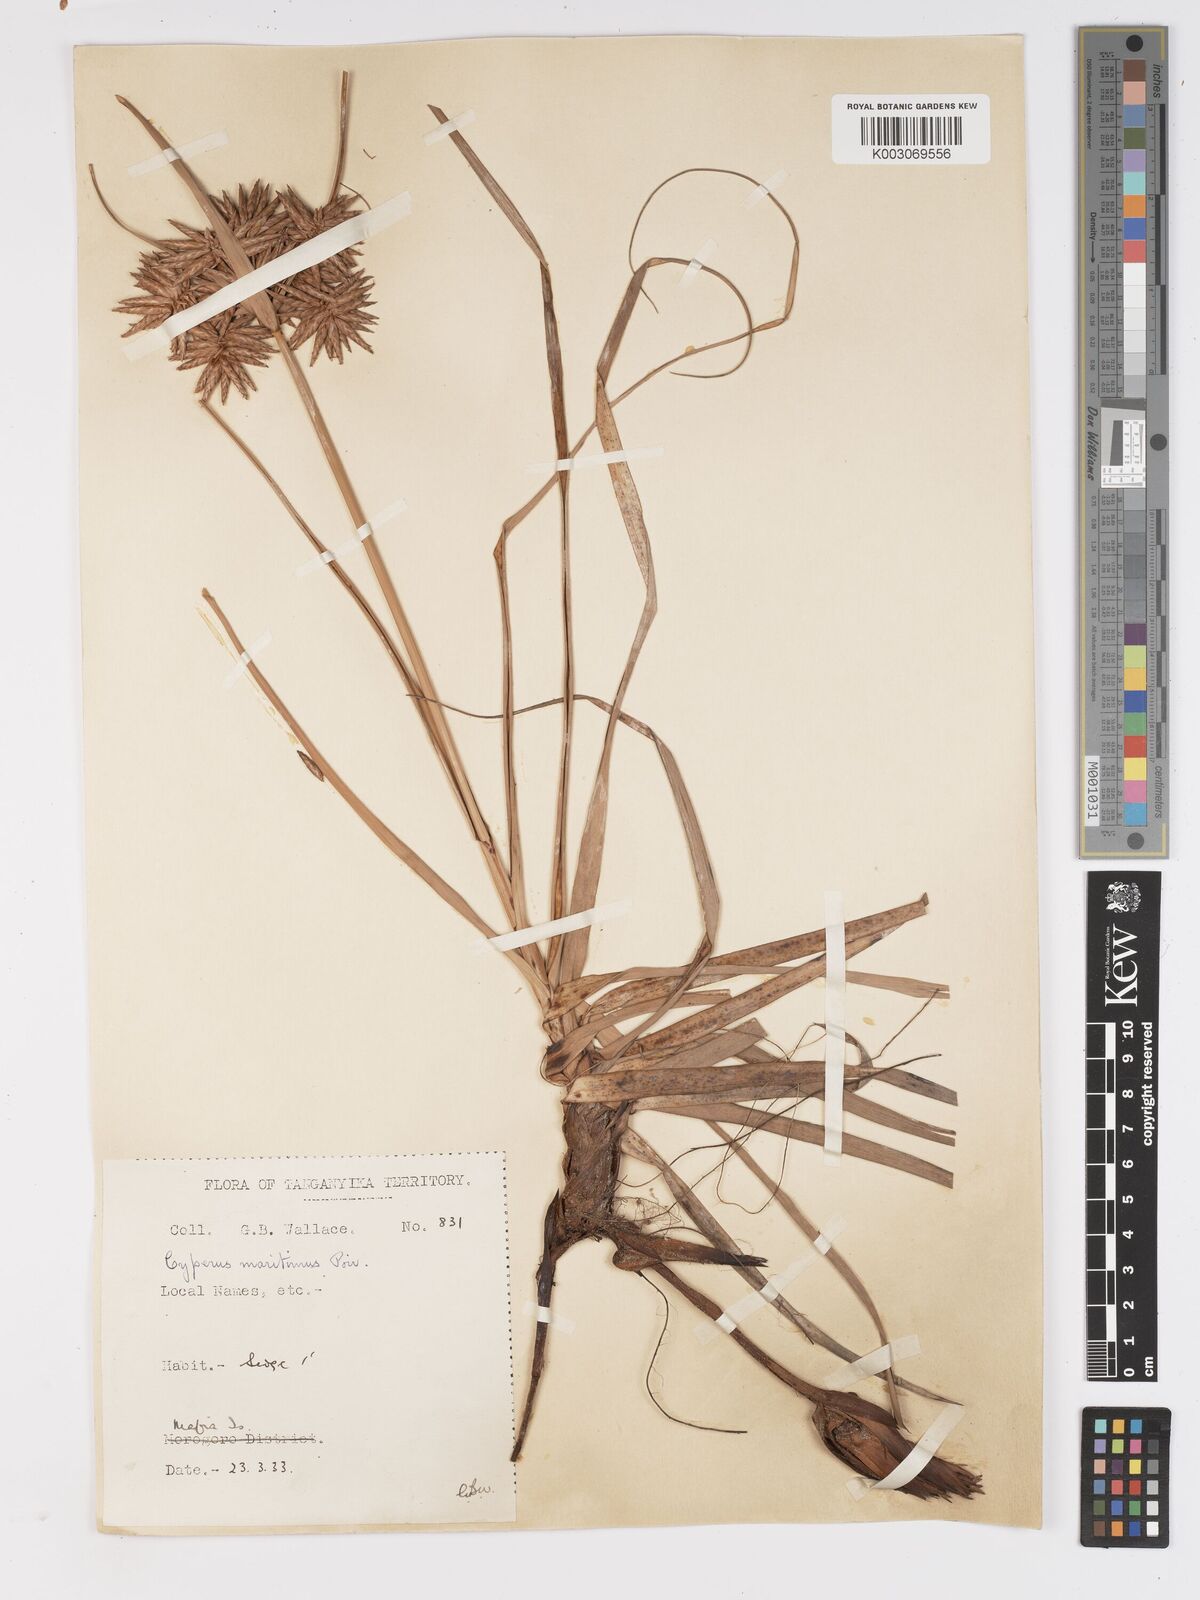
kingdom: Plantae
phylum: Tracheophyta
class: Liliopsida
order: Poales
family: Cyperaceae
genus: Cyperus
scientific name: Cyperus crassipes
